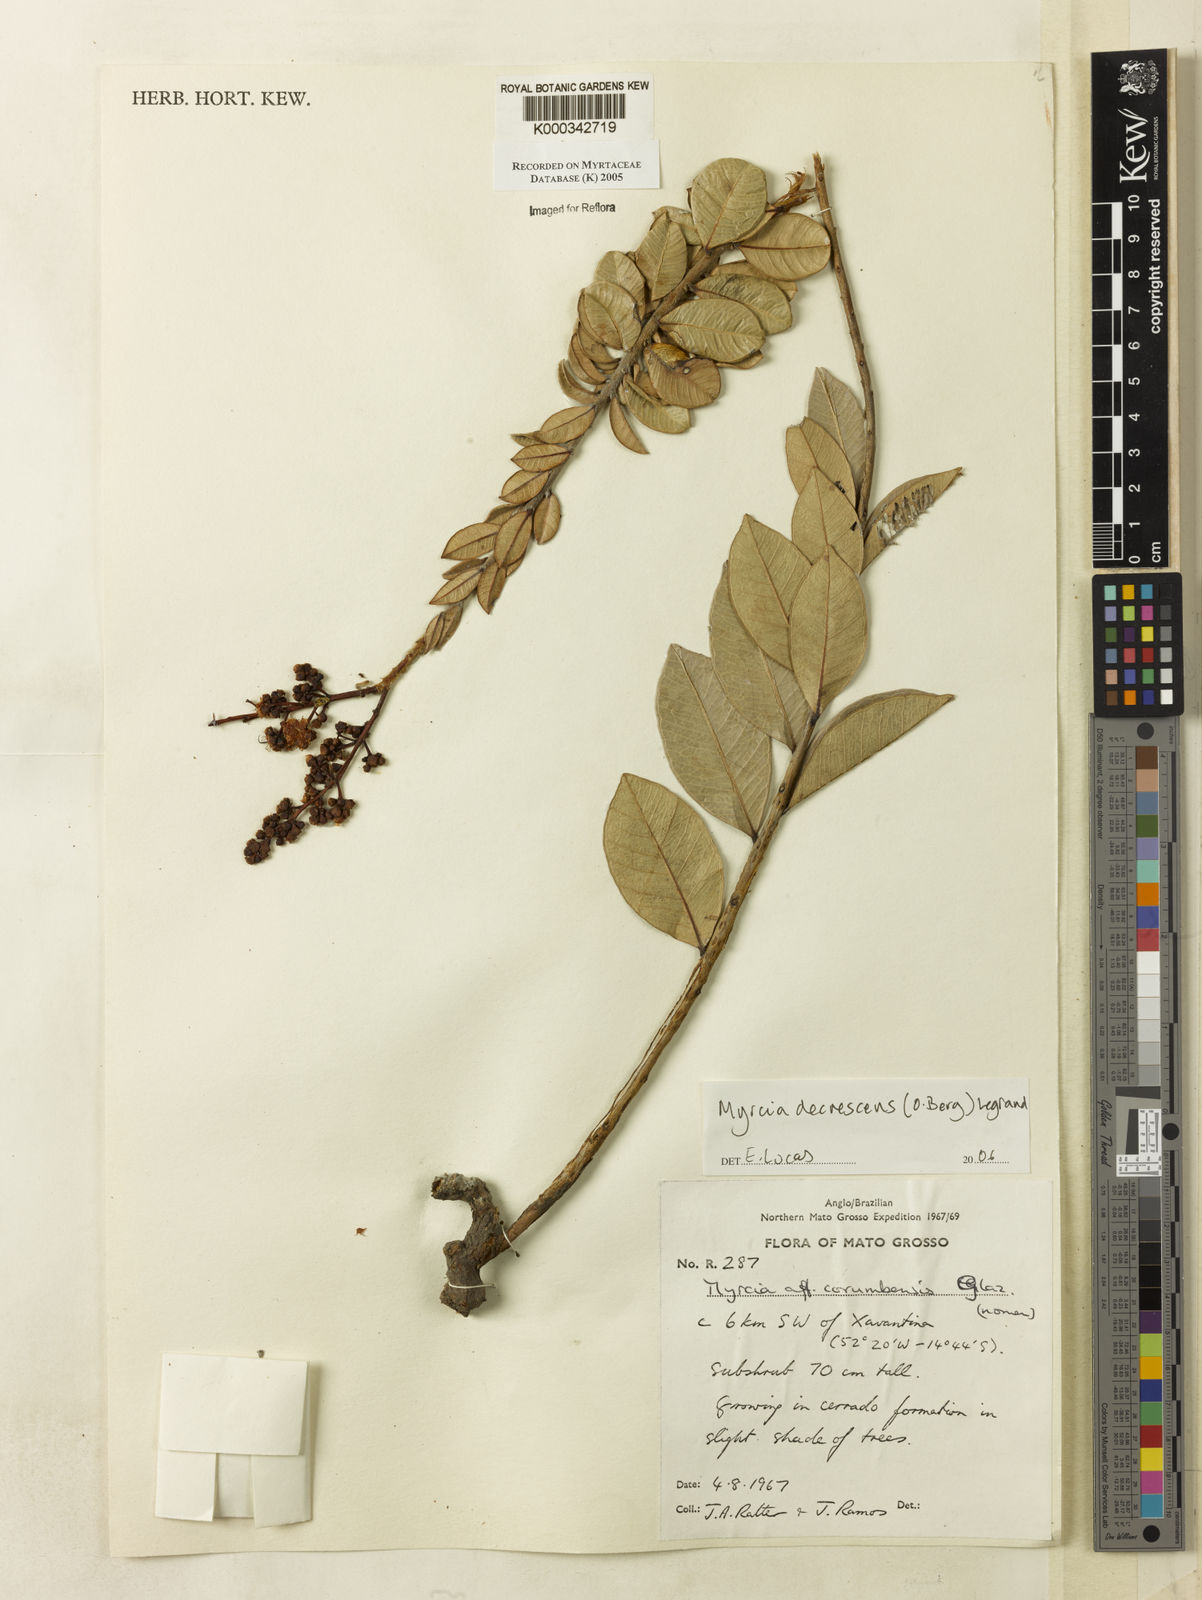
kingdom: Plantae
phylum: Tracheophyta
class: Magnoliopsida
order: Myrtales
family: Myrtaceae
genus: Myrcia
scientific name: Myrcia
